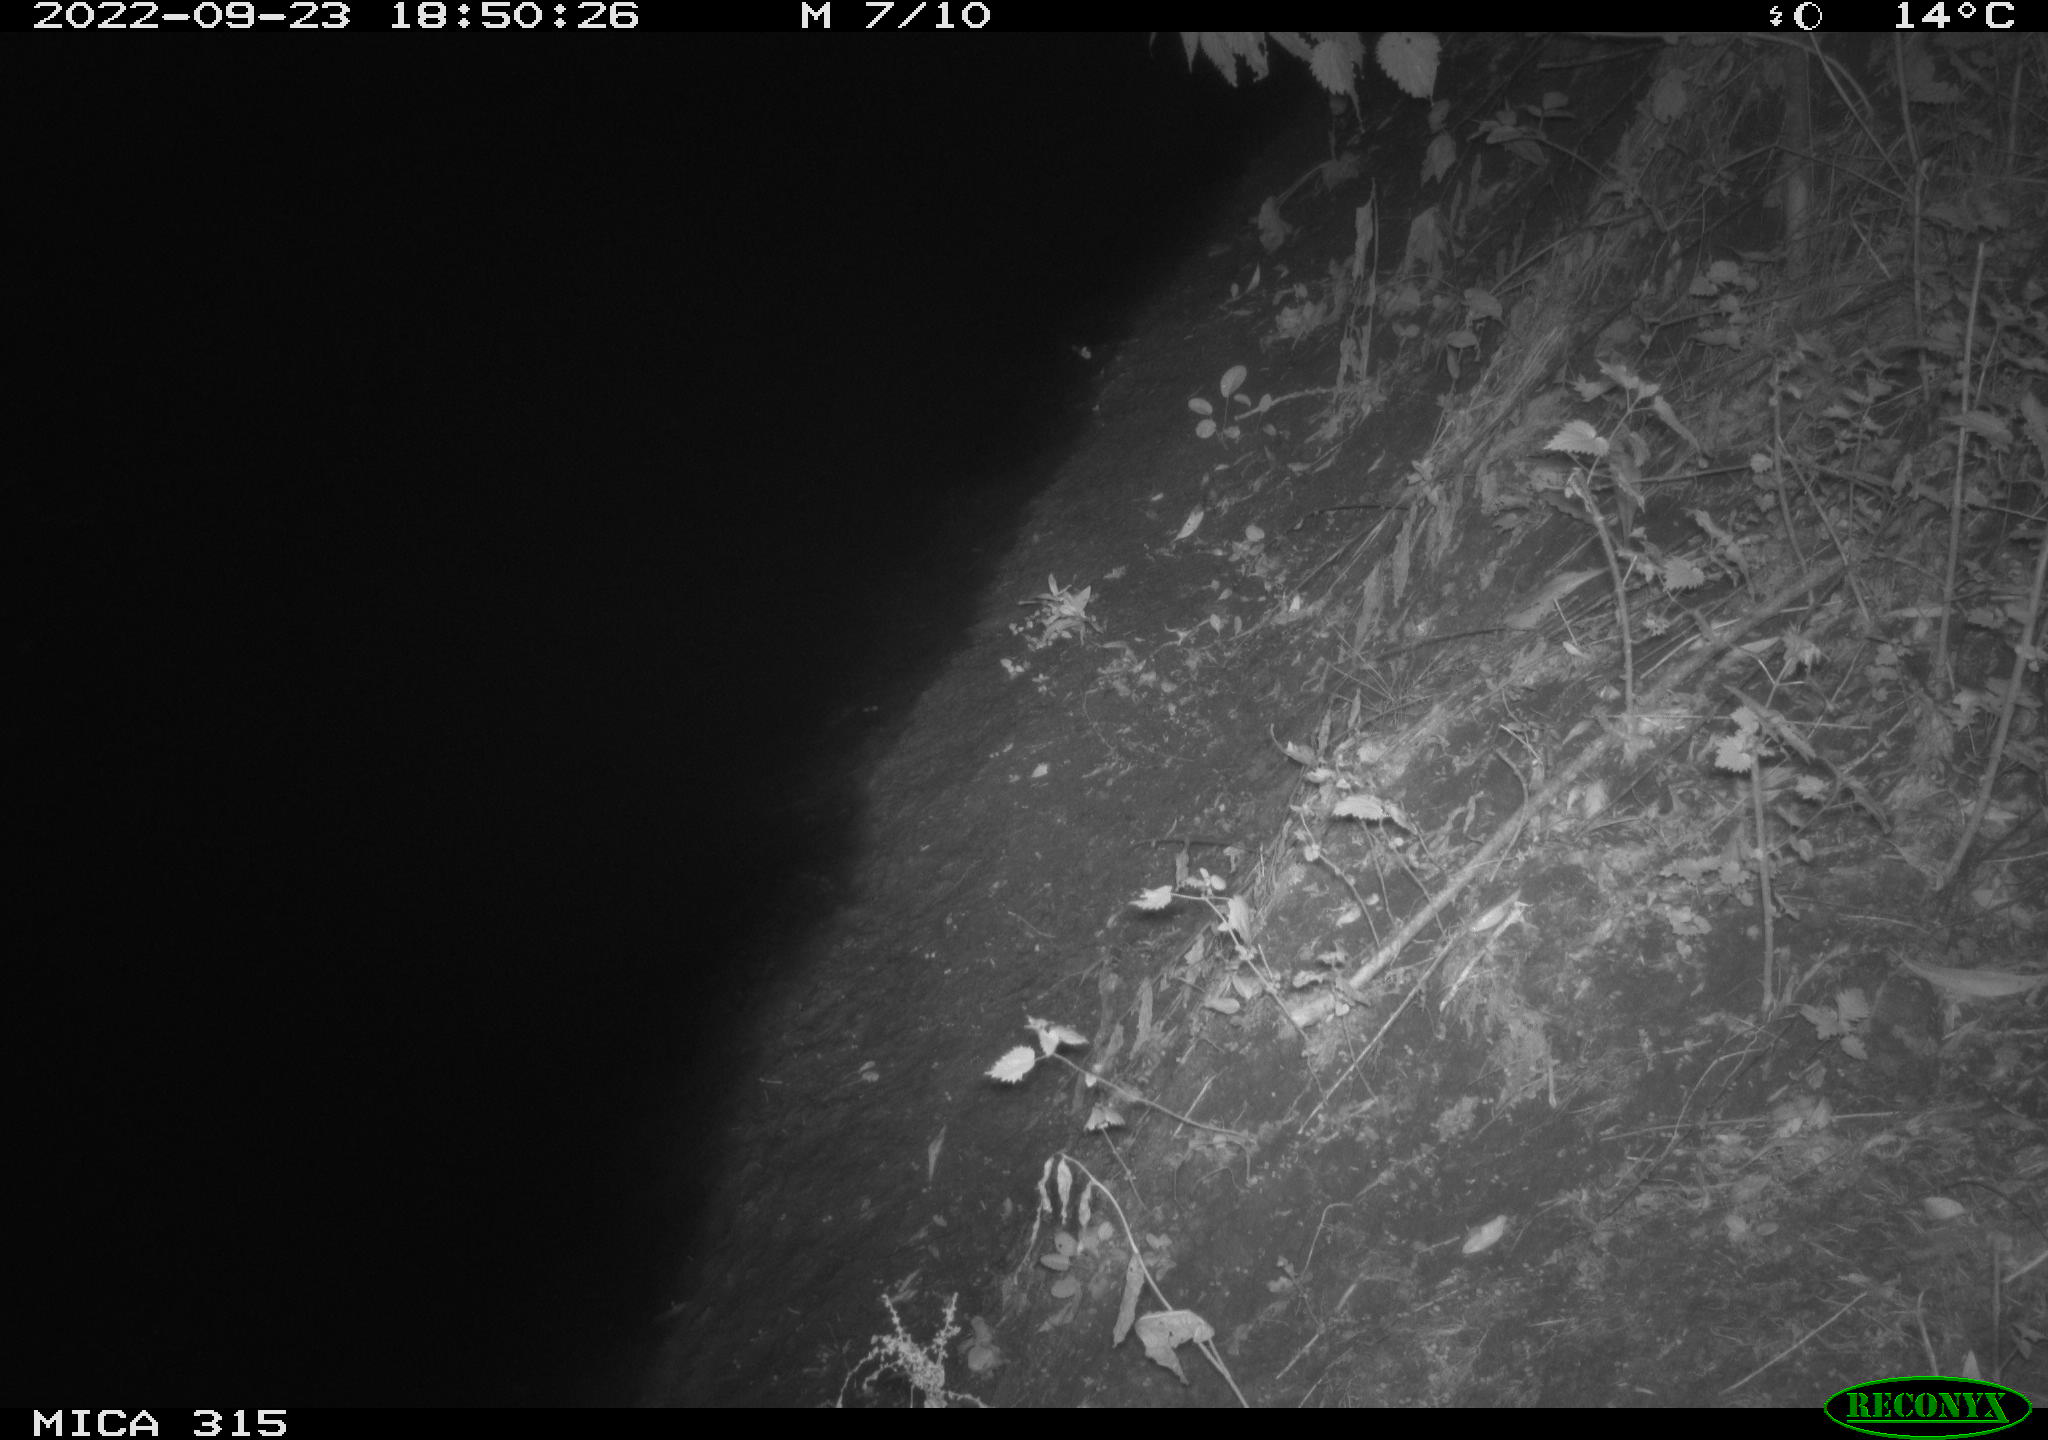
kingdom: Animalia
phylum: Chordata
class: Aves
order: Anseriformes
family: Anatidae
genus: Anas
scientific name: Anas
